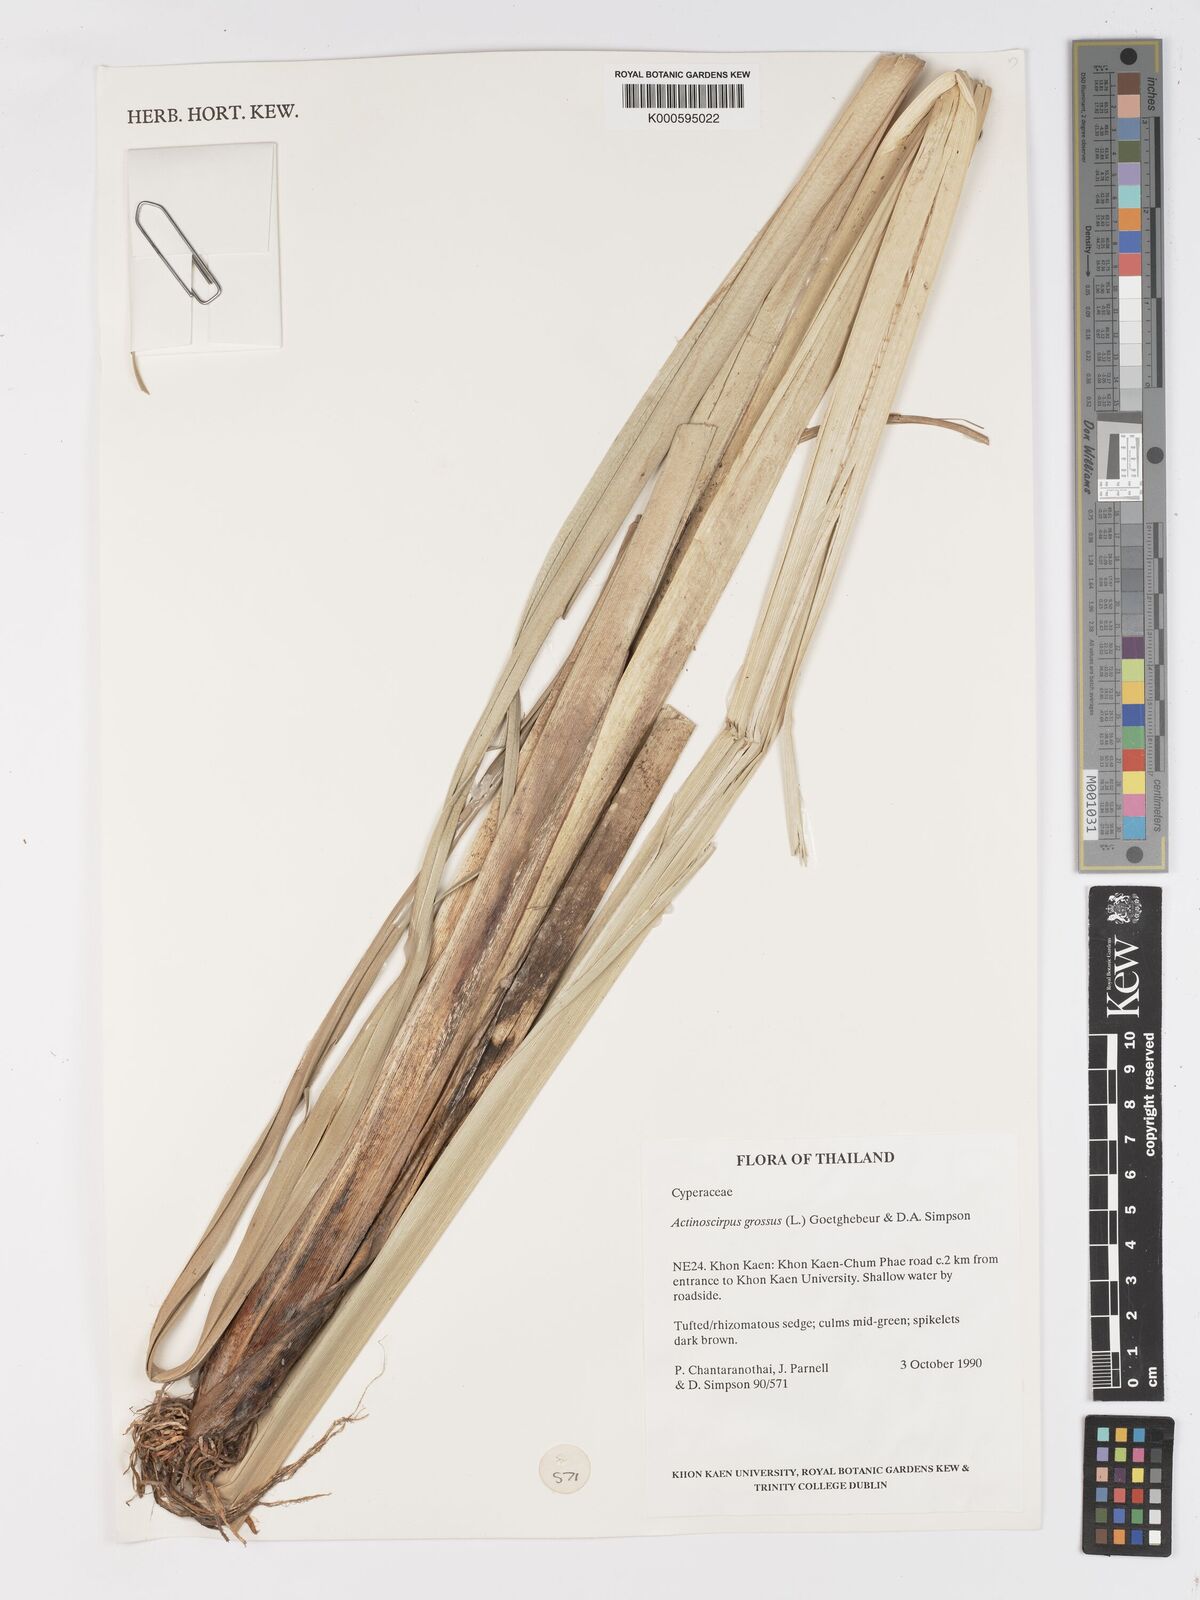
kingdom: Plantae
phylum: Tracheophyta
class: Liliopsida
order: Poales
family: Cyperaceae
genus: Actinoscirpus
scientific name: Actinoscirpus grossus
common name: Giant bur rush
